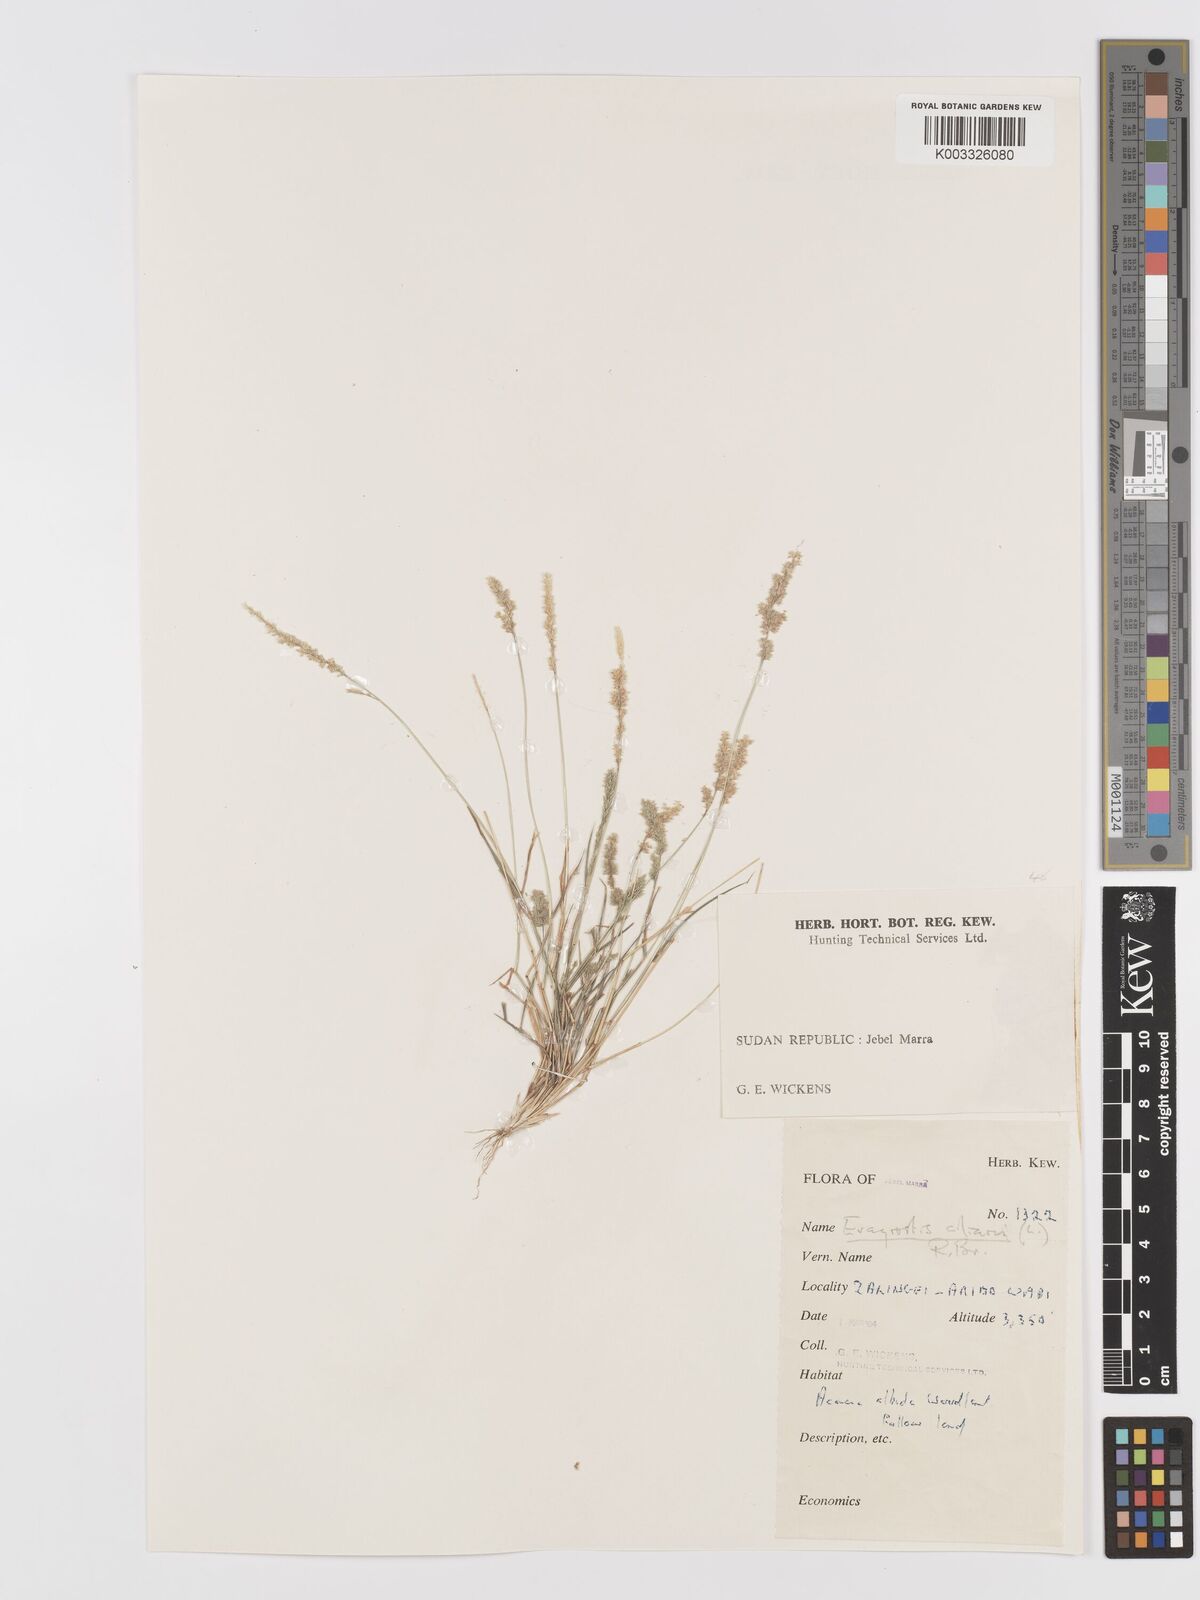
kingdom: Plantae
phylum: Tracheophyta
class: Liliopsida
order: Poales
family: Poaceae
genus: Eragrostis
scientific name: Eragrostis ciliaris
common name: Gophertail lovegrass
